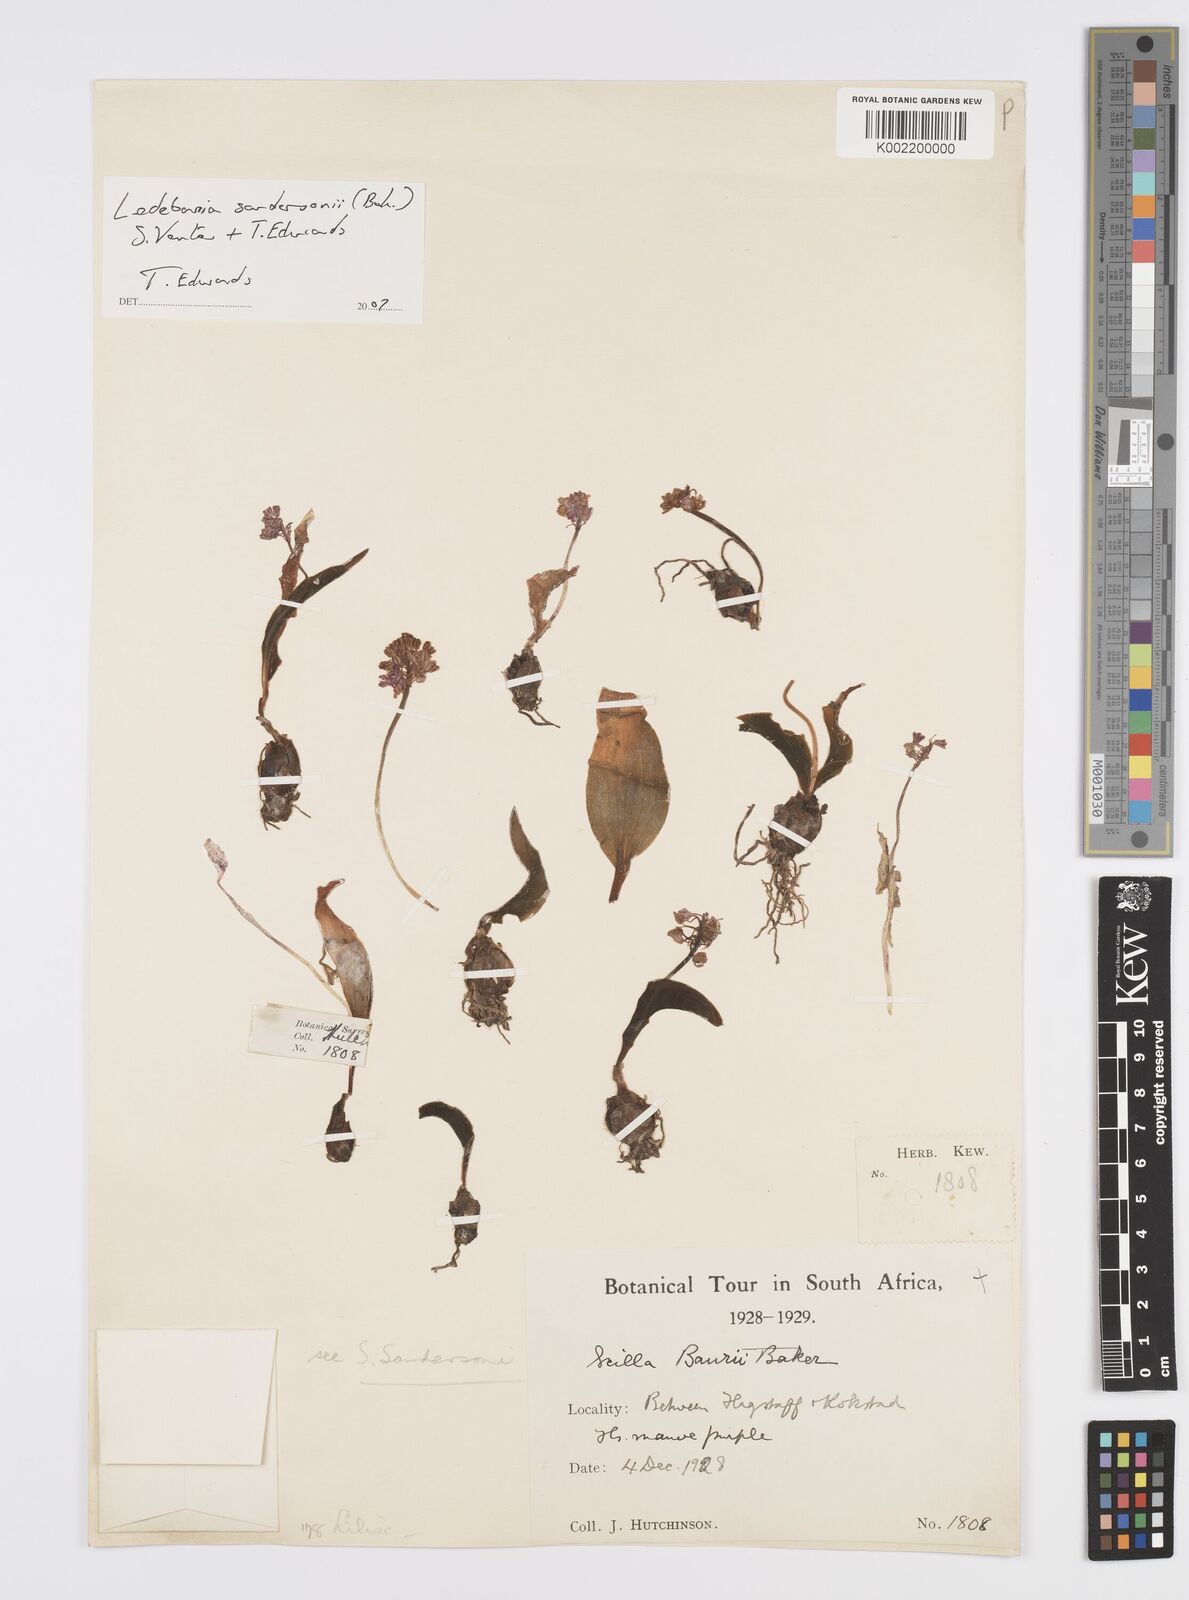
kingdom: Plantae
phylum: Tracheophyta
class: Liliopsida
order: Asparagales
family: Asparagaceae
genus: Ledebouria
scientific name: Ledebouria sandersonii
